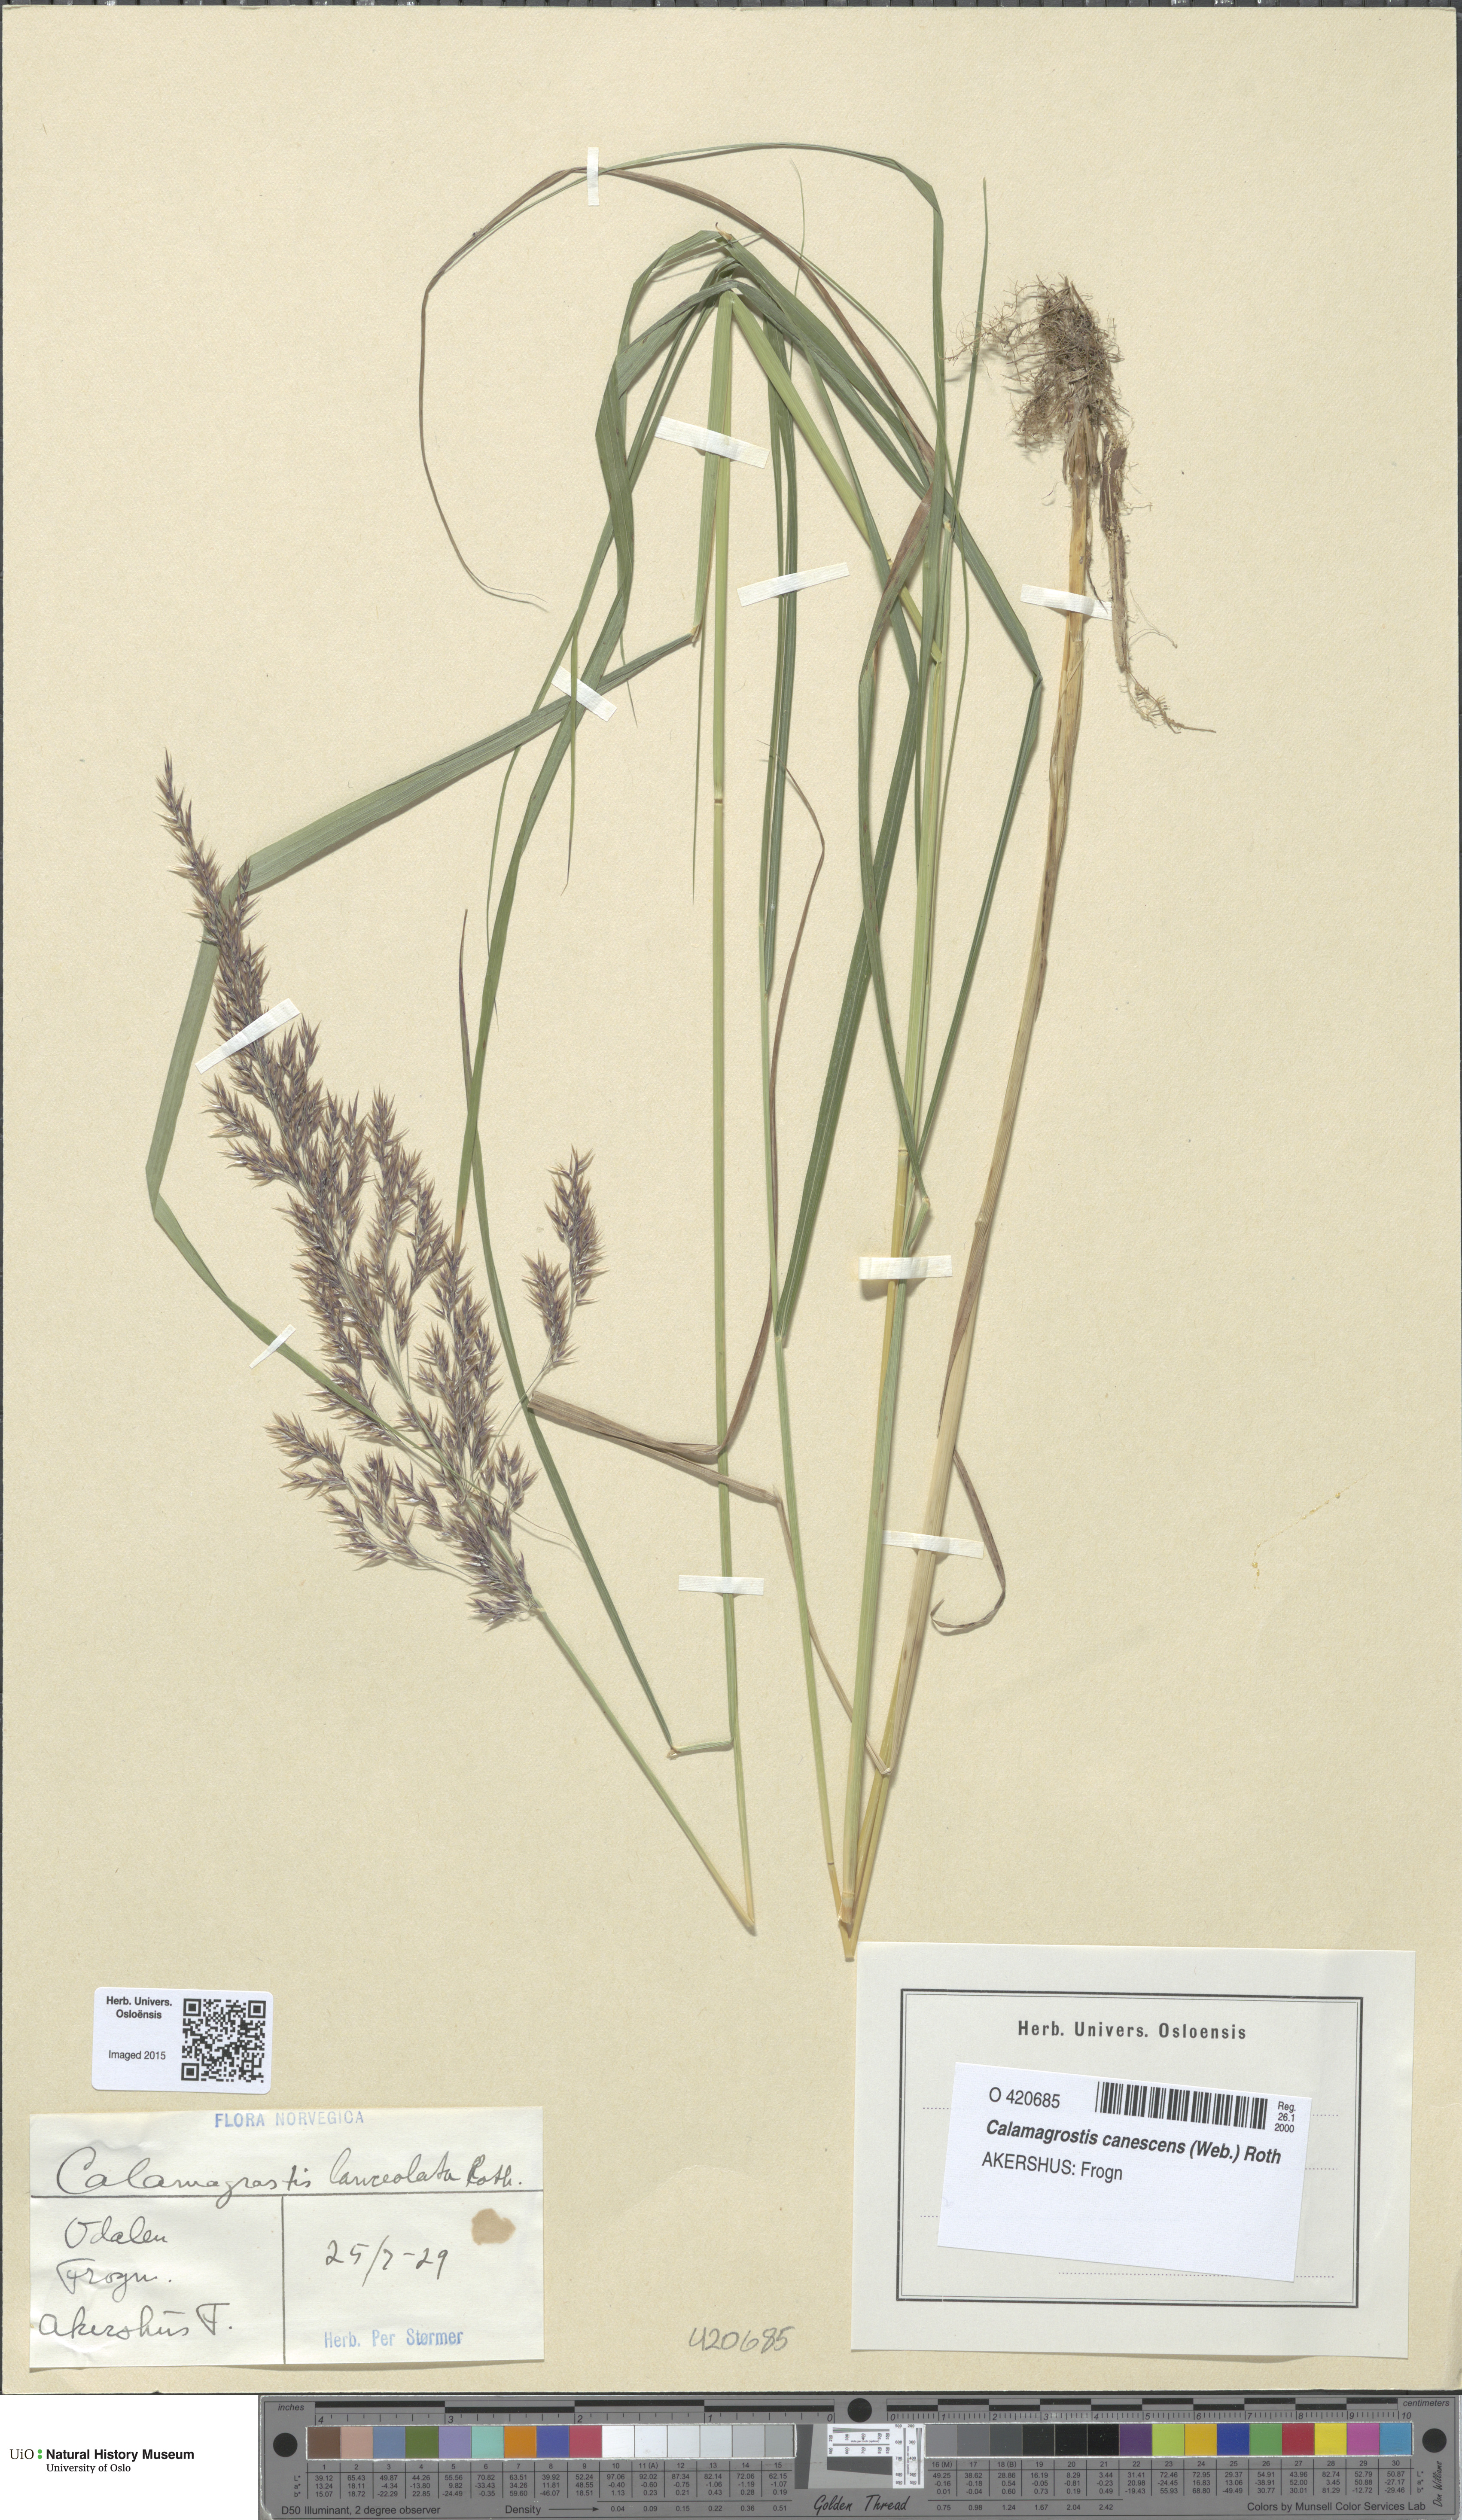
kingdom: Plantae
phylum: Tracheophyta
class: Liliopsida
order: Poales
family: Poaceae
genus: Calamagrostis
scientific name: Calamagrostis canescens
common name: Purple small-reed
